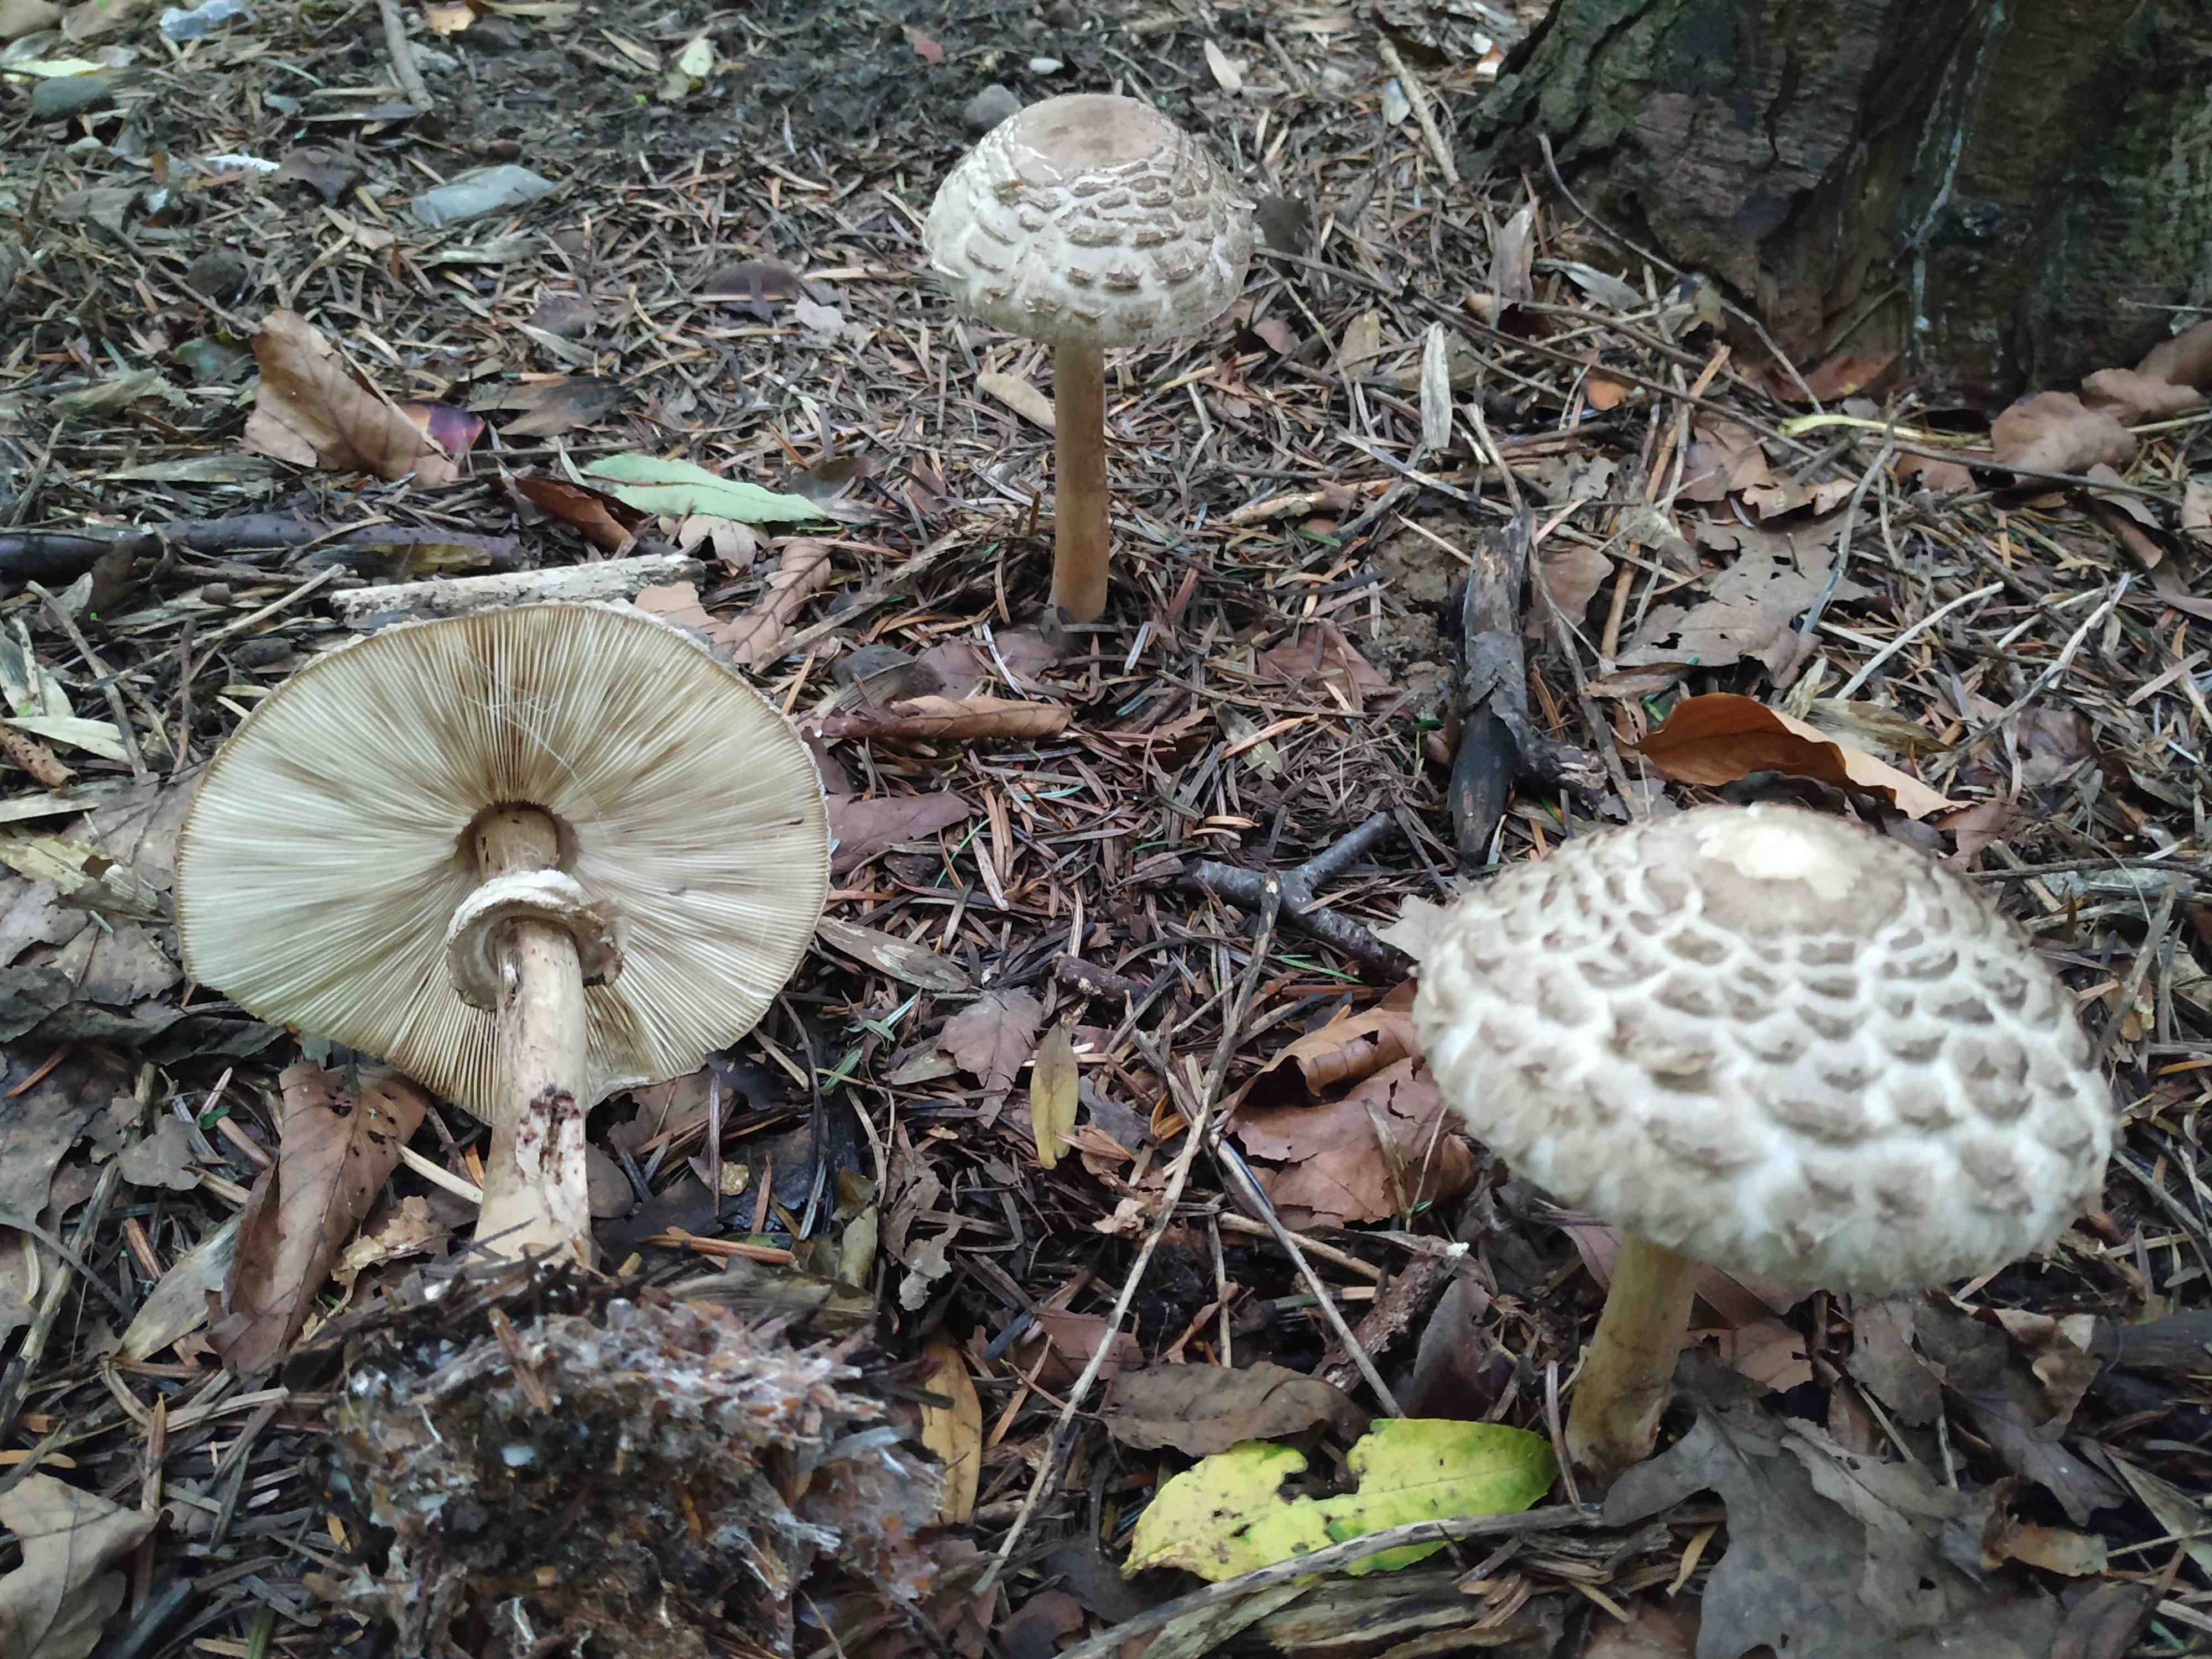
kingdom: Fungi
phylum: Basidiomycota
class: Agaricomycetes
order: Agaricales
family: Agaricaceae
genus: Chlorophyllum
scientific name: Chlorophyllum olivieri
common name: almindelig rabarberhat
